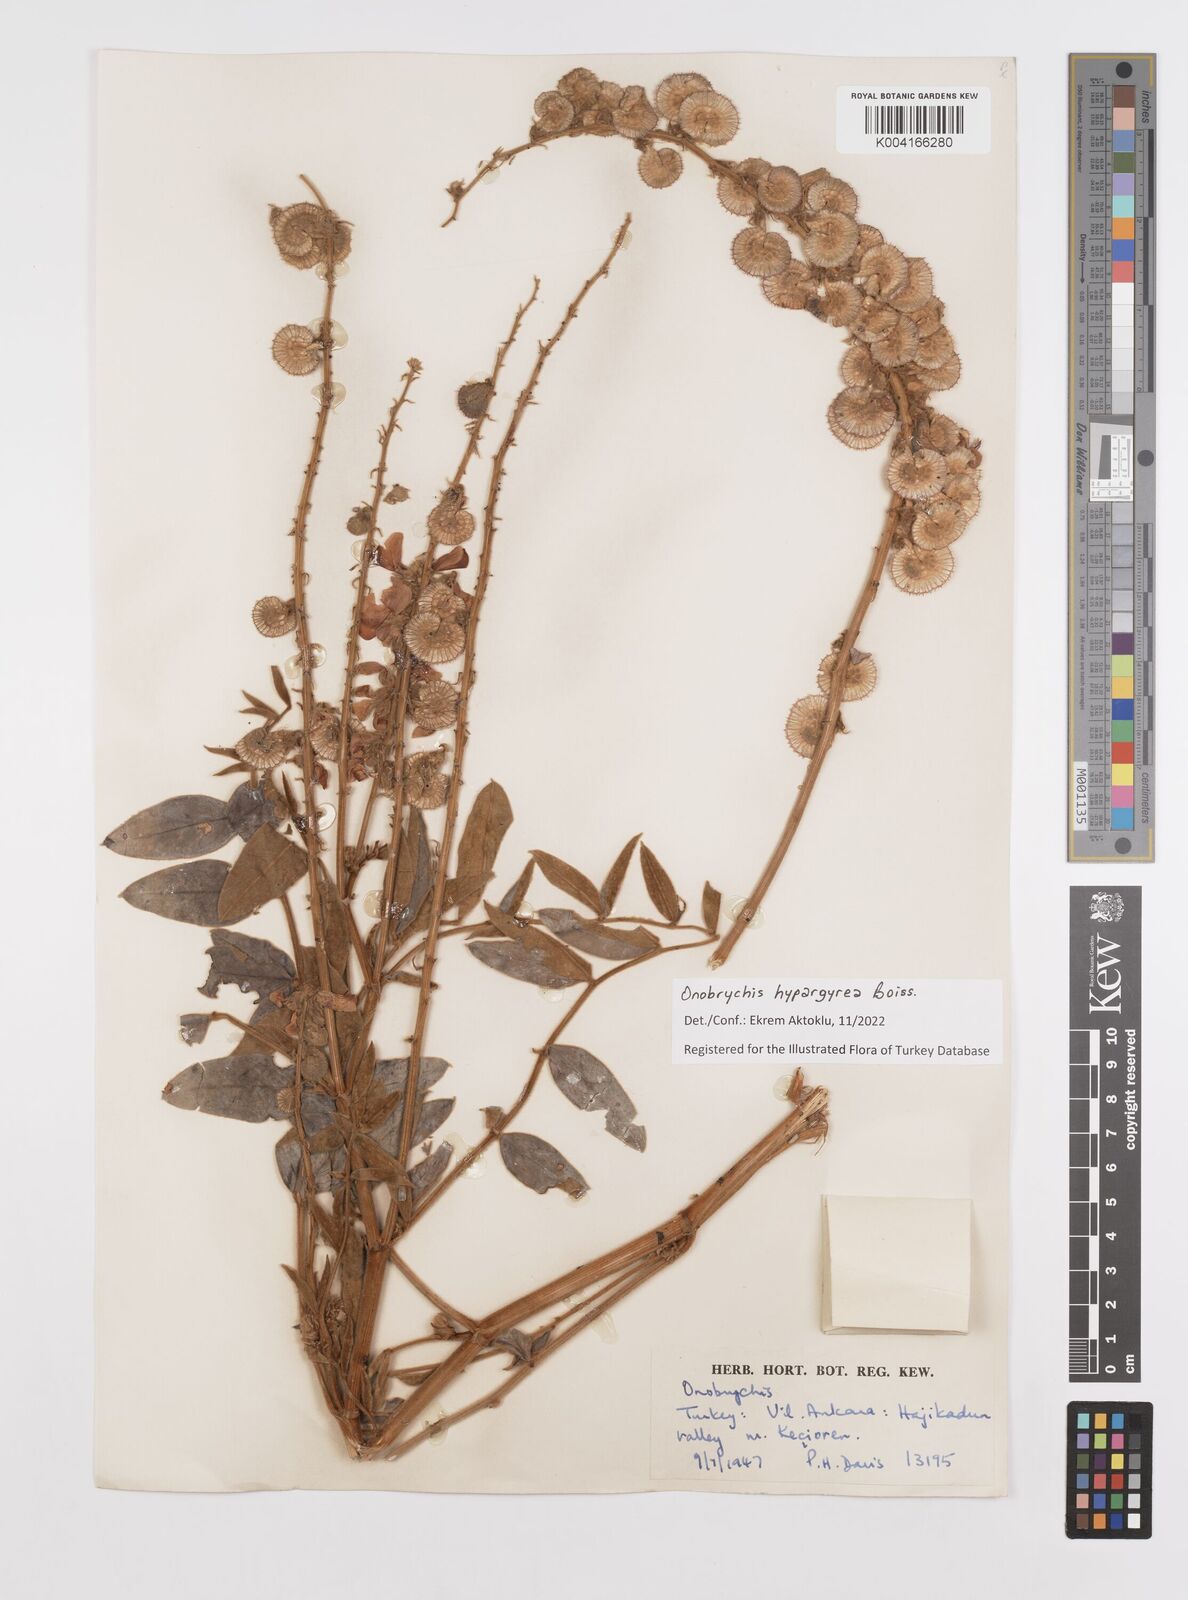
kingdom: Plantae
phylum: Tracheophyta
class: Magnoliopsida
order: Fabales
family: Fabaceae
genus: Onobrychis
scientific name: Onobrychis hypargyrea
